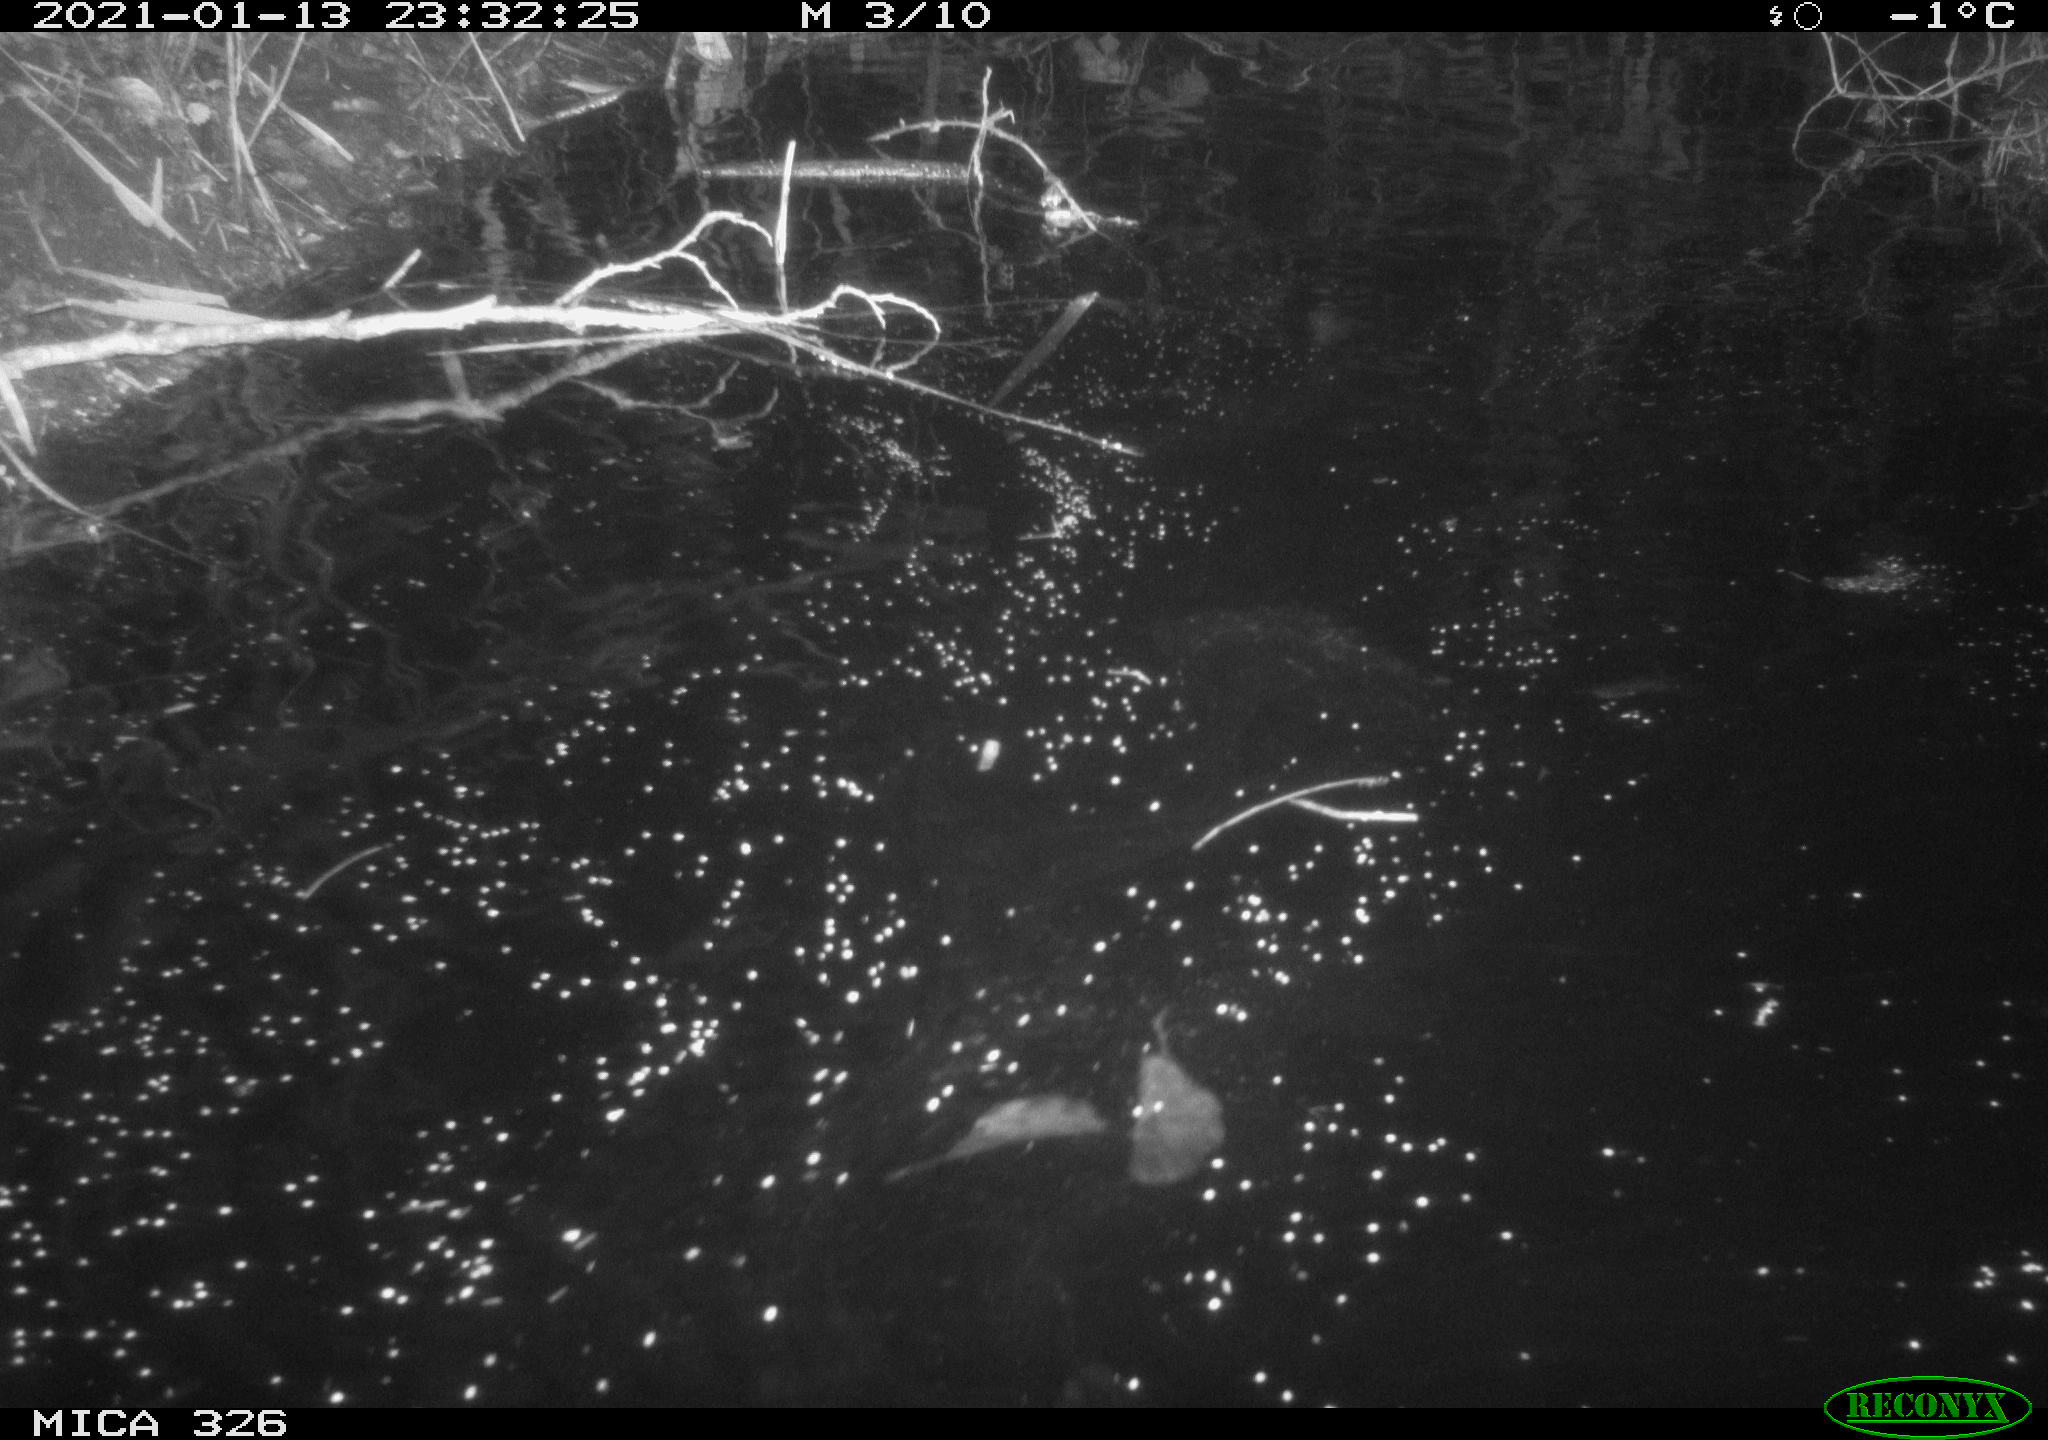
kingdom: Animalia
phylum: Chordata
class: Mammalia
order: Rodentia
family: Myocastoridae
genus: Myocastor
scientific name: Myocastor coypus
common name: Coypu
